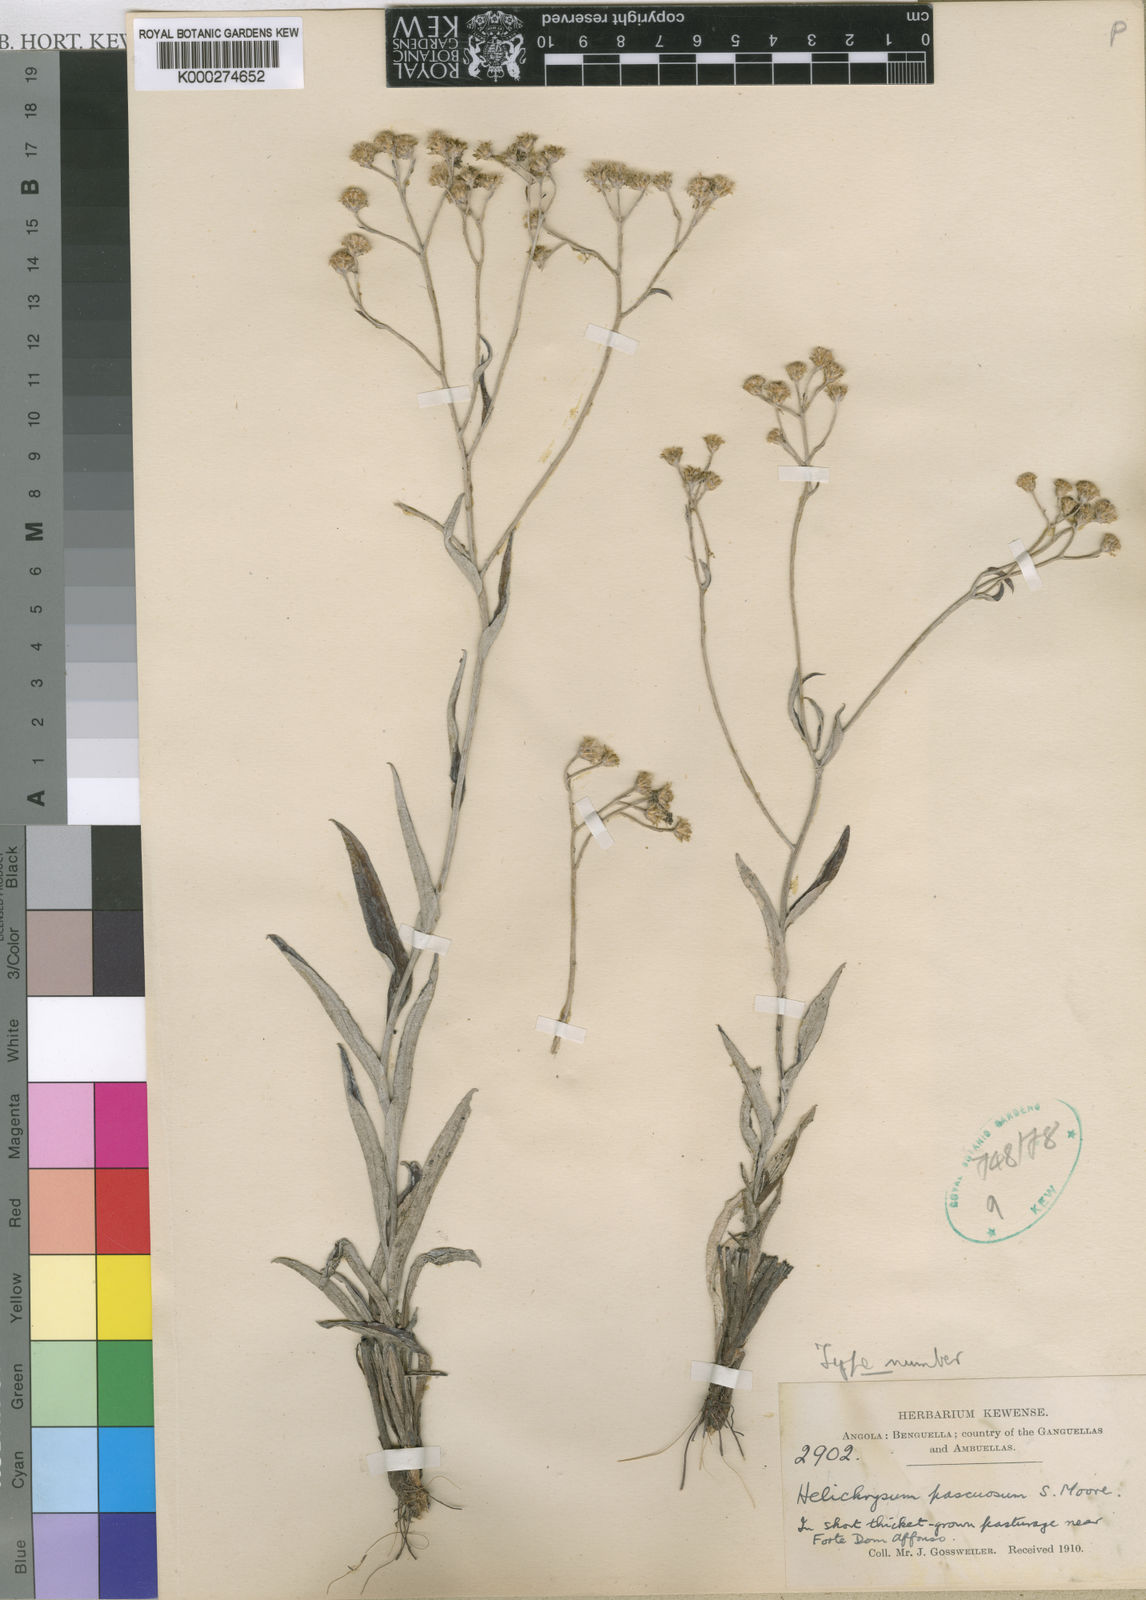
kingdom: Plantae
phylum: Tracheophyta
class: Magnoliopsida
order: Asterales
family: Asteraceae
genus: Helichrysum
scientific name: Helichrysum pascuosum
